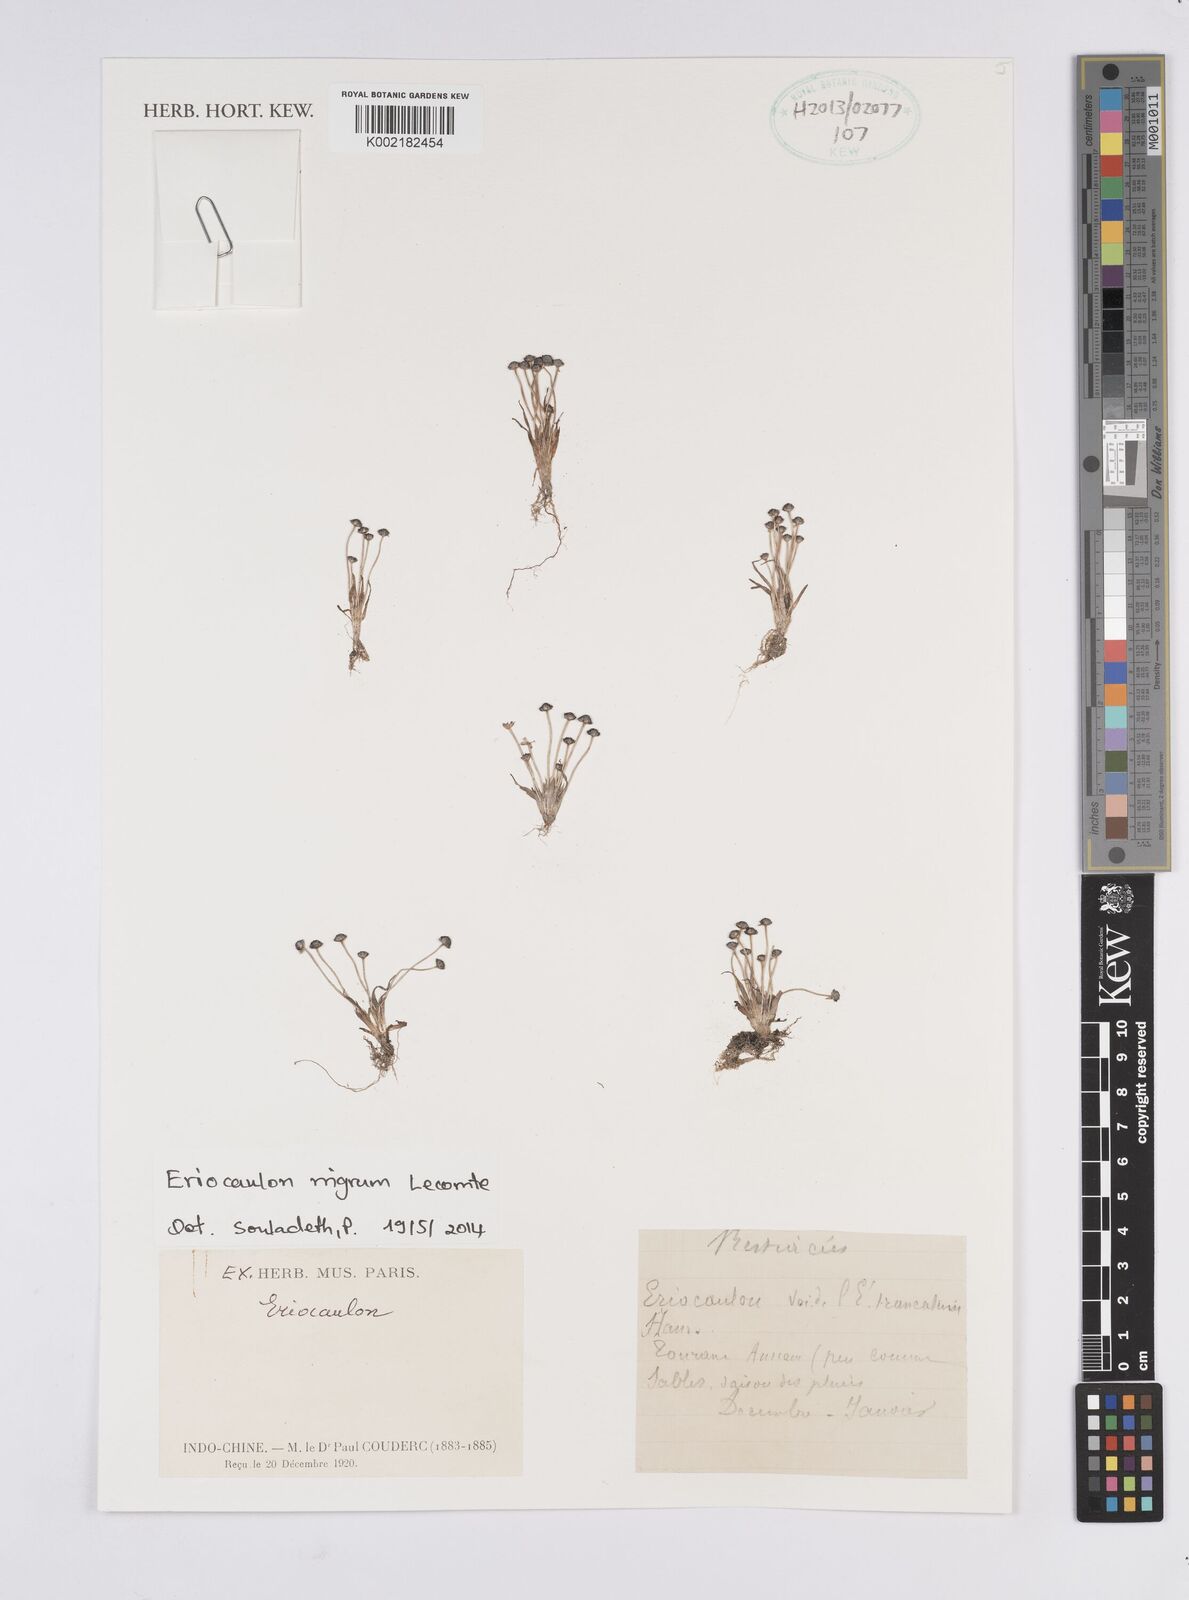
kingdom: Plantae
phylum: Tracheophyta
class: Liliopsida
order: Poales
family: Eriocaulaceae
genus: Eriocaulon
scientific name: Eriocaulon nigrum
